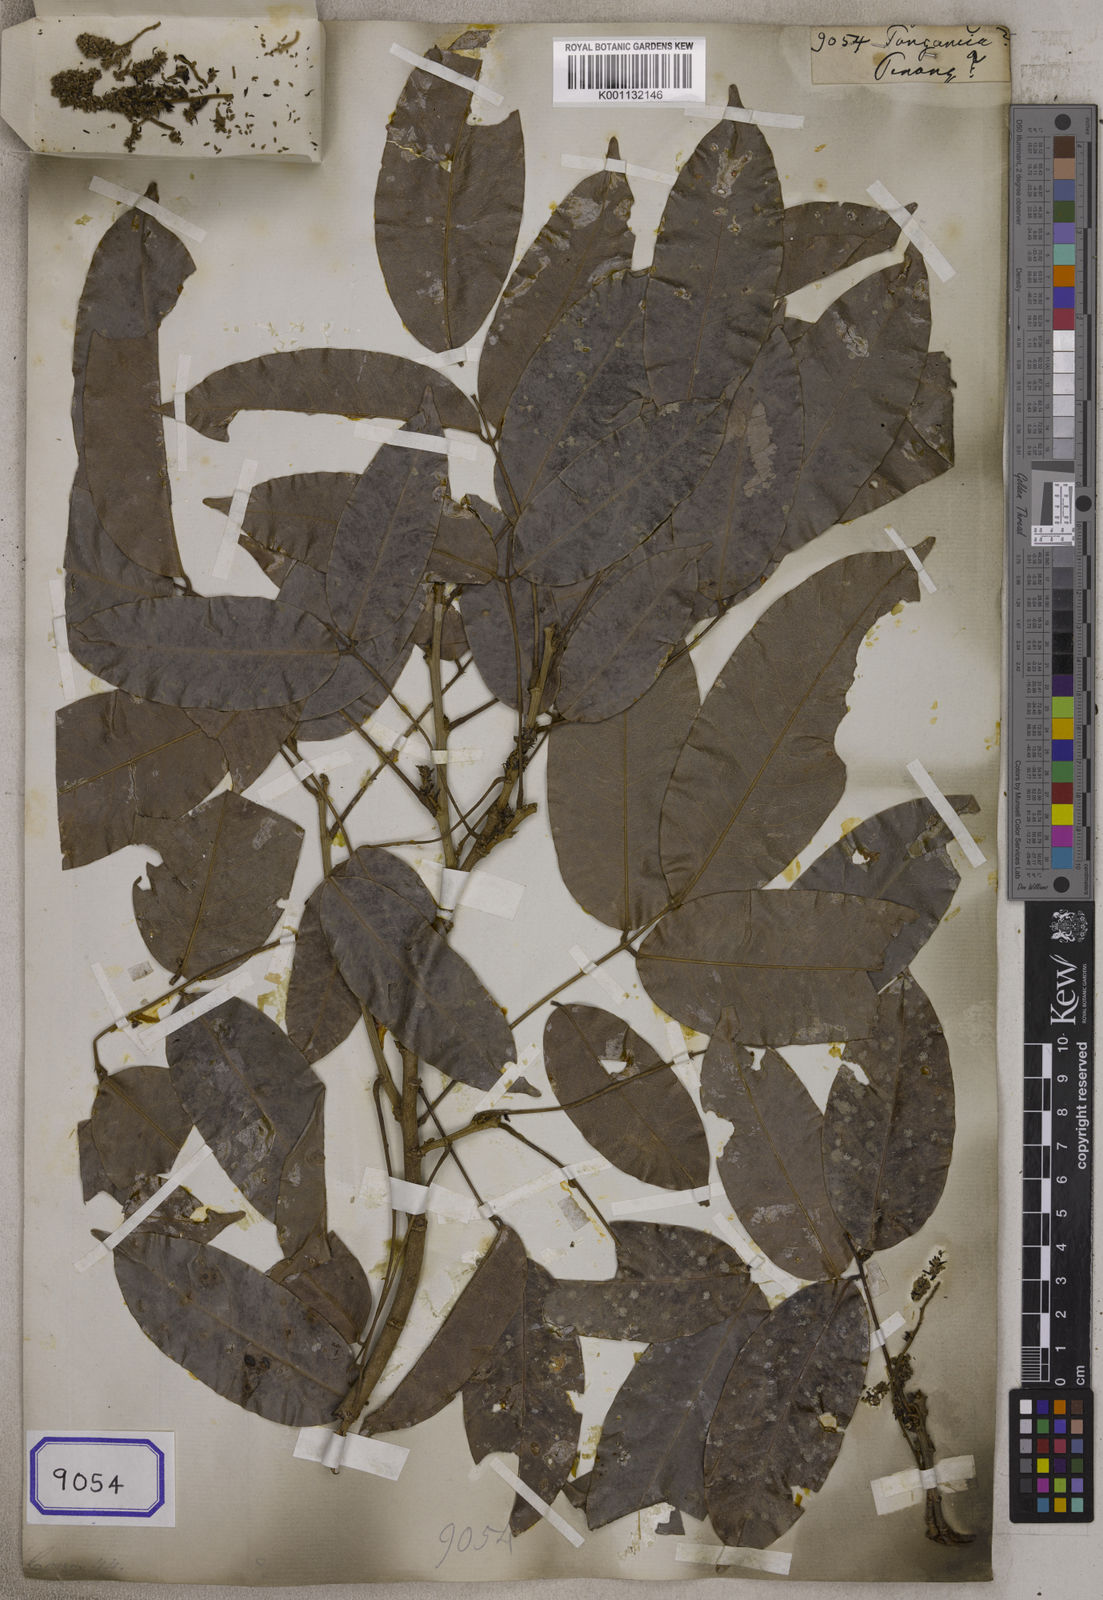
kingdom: Plantae
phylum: Tracheophyta
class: Magnoliopsida
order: Gentianales
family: Rubiaceae
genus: Hamelia
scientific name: Hamelia
